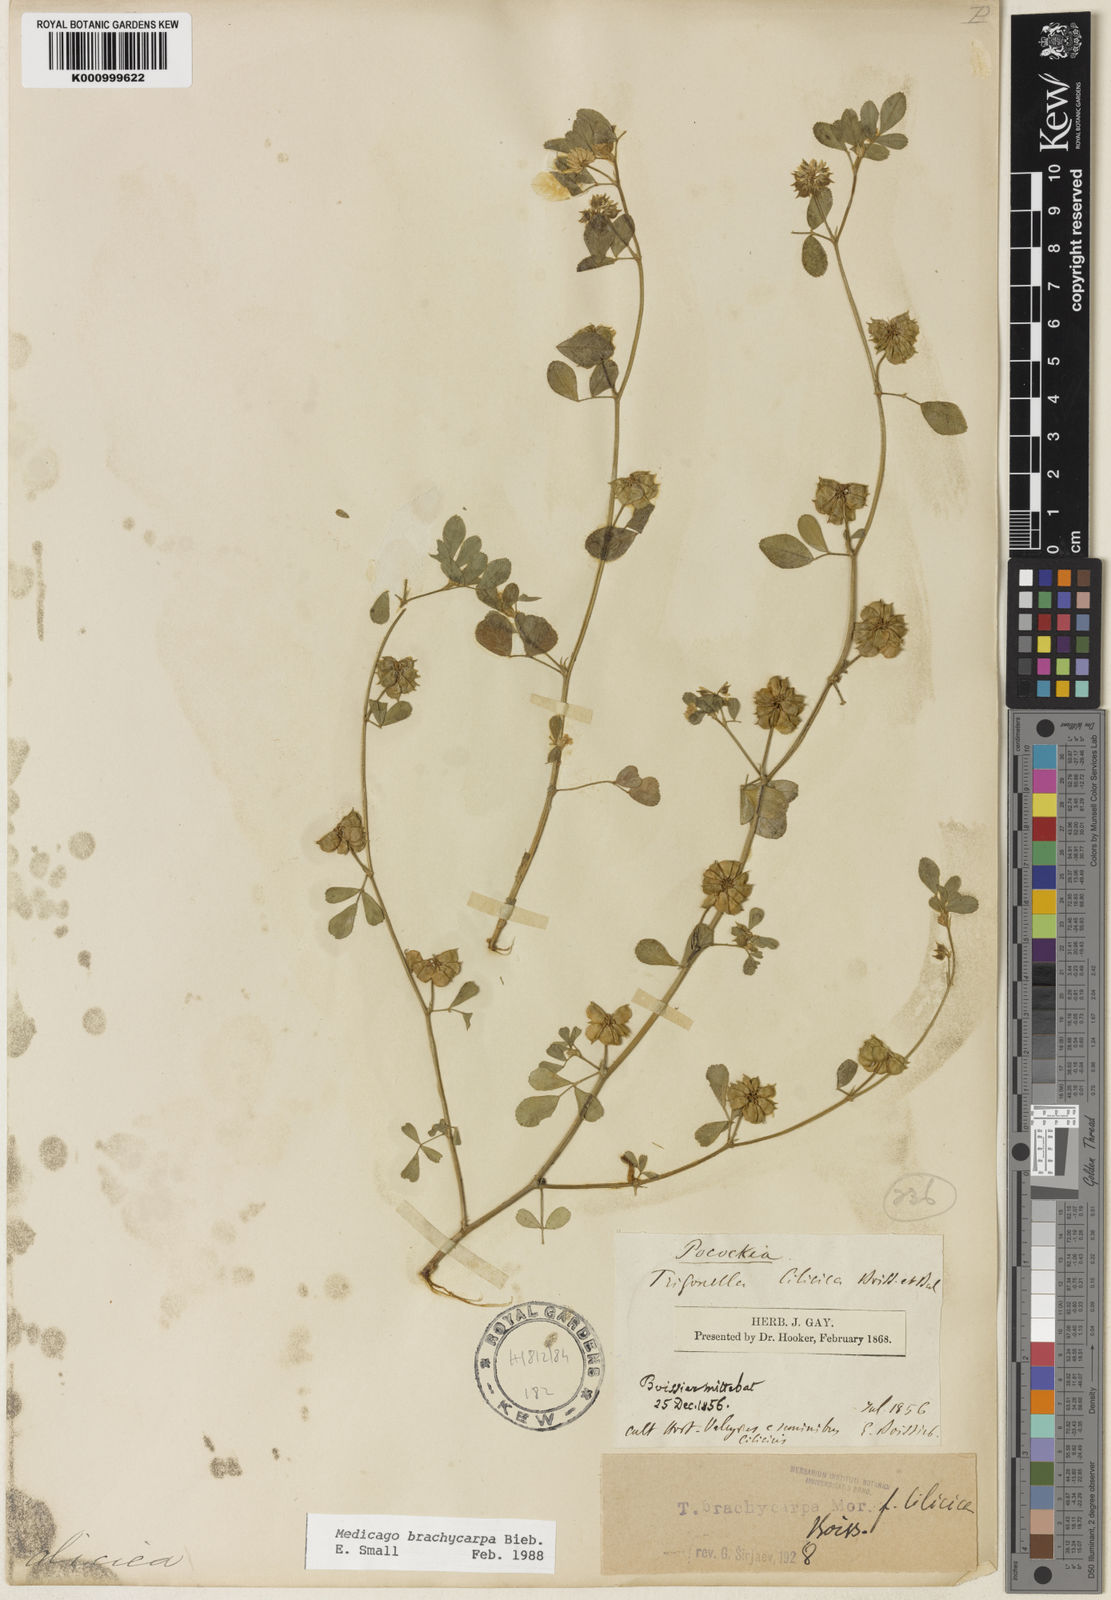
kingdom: Plantae
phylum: Tracheophyta
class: Magnoliopsida
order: Fabales
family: Fabaceae
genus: Medicago
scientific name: Medicago brachycarpa
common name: Short-fruited fenugreek
